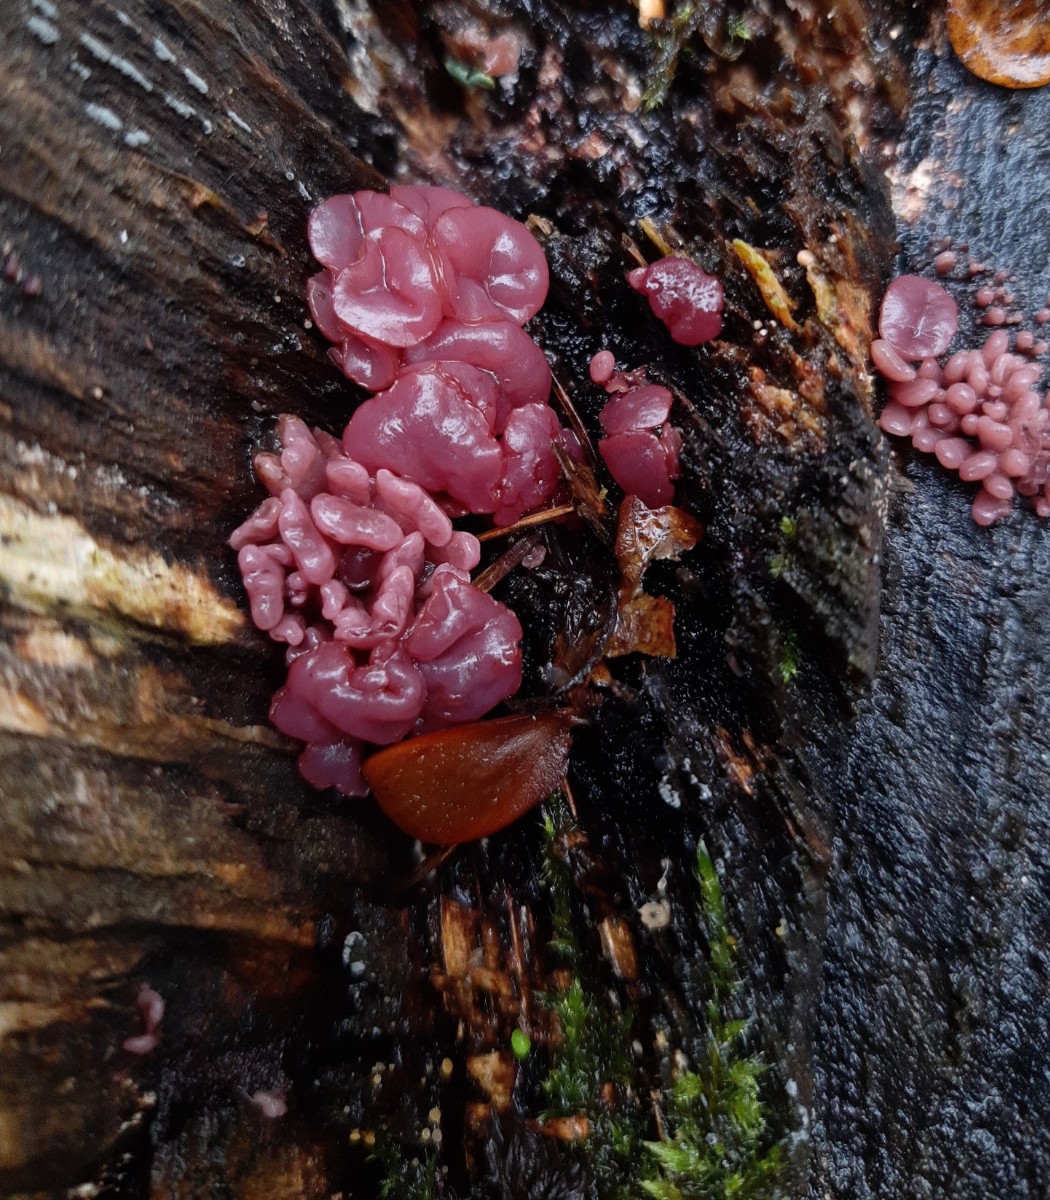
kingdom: Fungi
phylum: Ascomycota
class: Leotiomycetes
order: Helotiales
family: Gelatinodiscaceae
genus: Ascocoryne
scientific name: Ascocoryne sarcoides
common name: rødlilla sejskive
